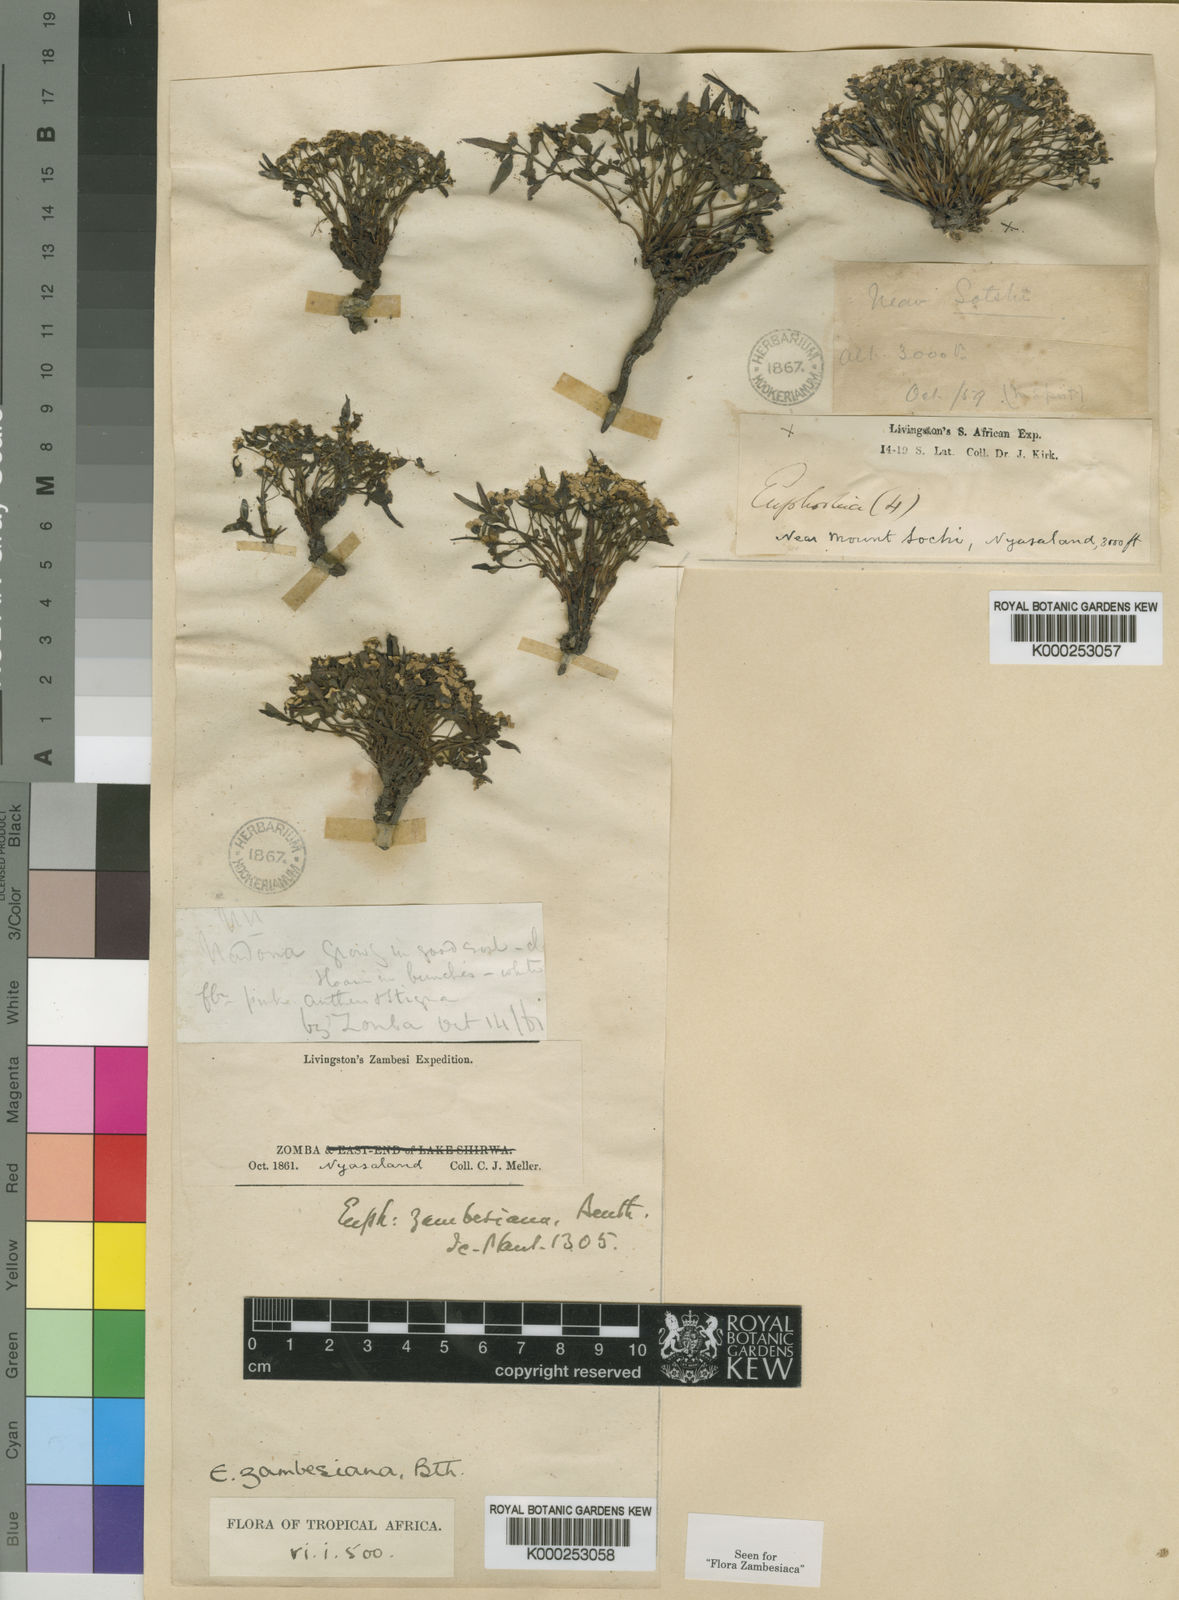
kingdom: Plantae
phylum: Tracheophyta
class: Magnoliopsida
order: Malpighiales
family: Euphorbiaceae
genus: Euphorbia
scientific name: Euphorbia zambesiana
